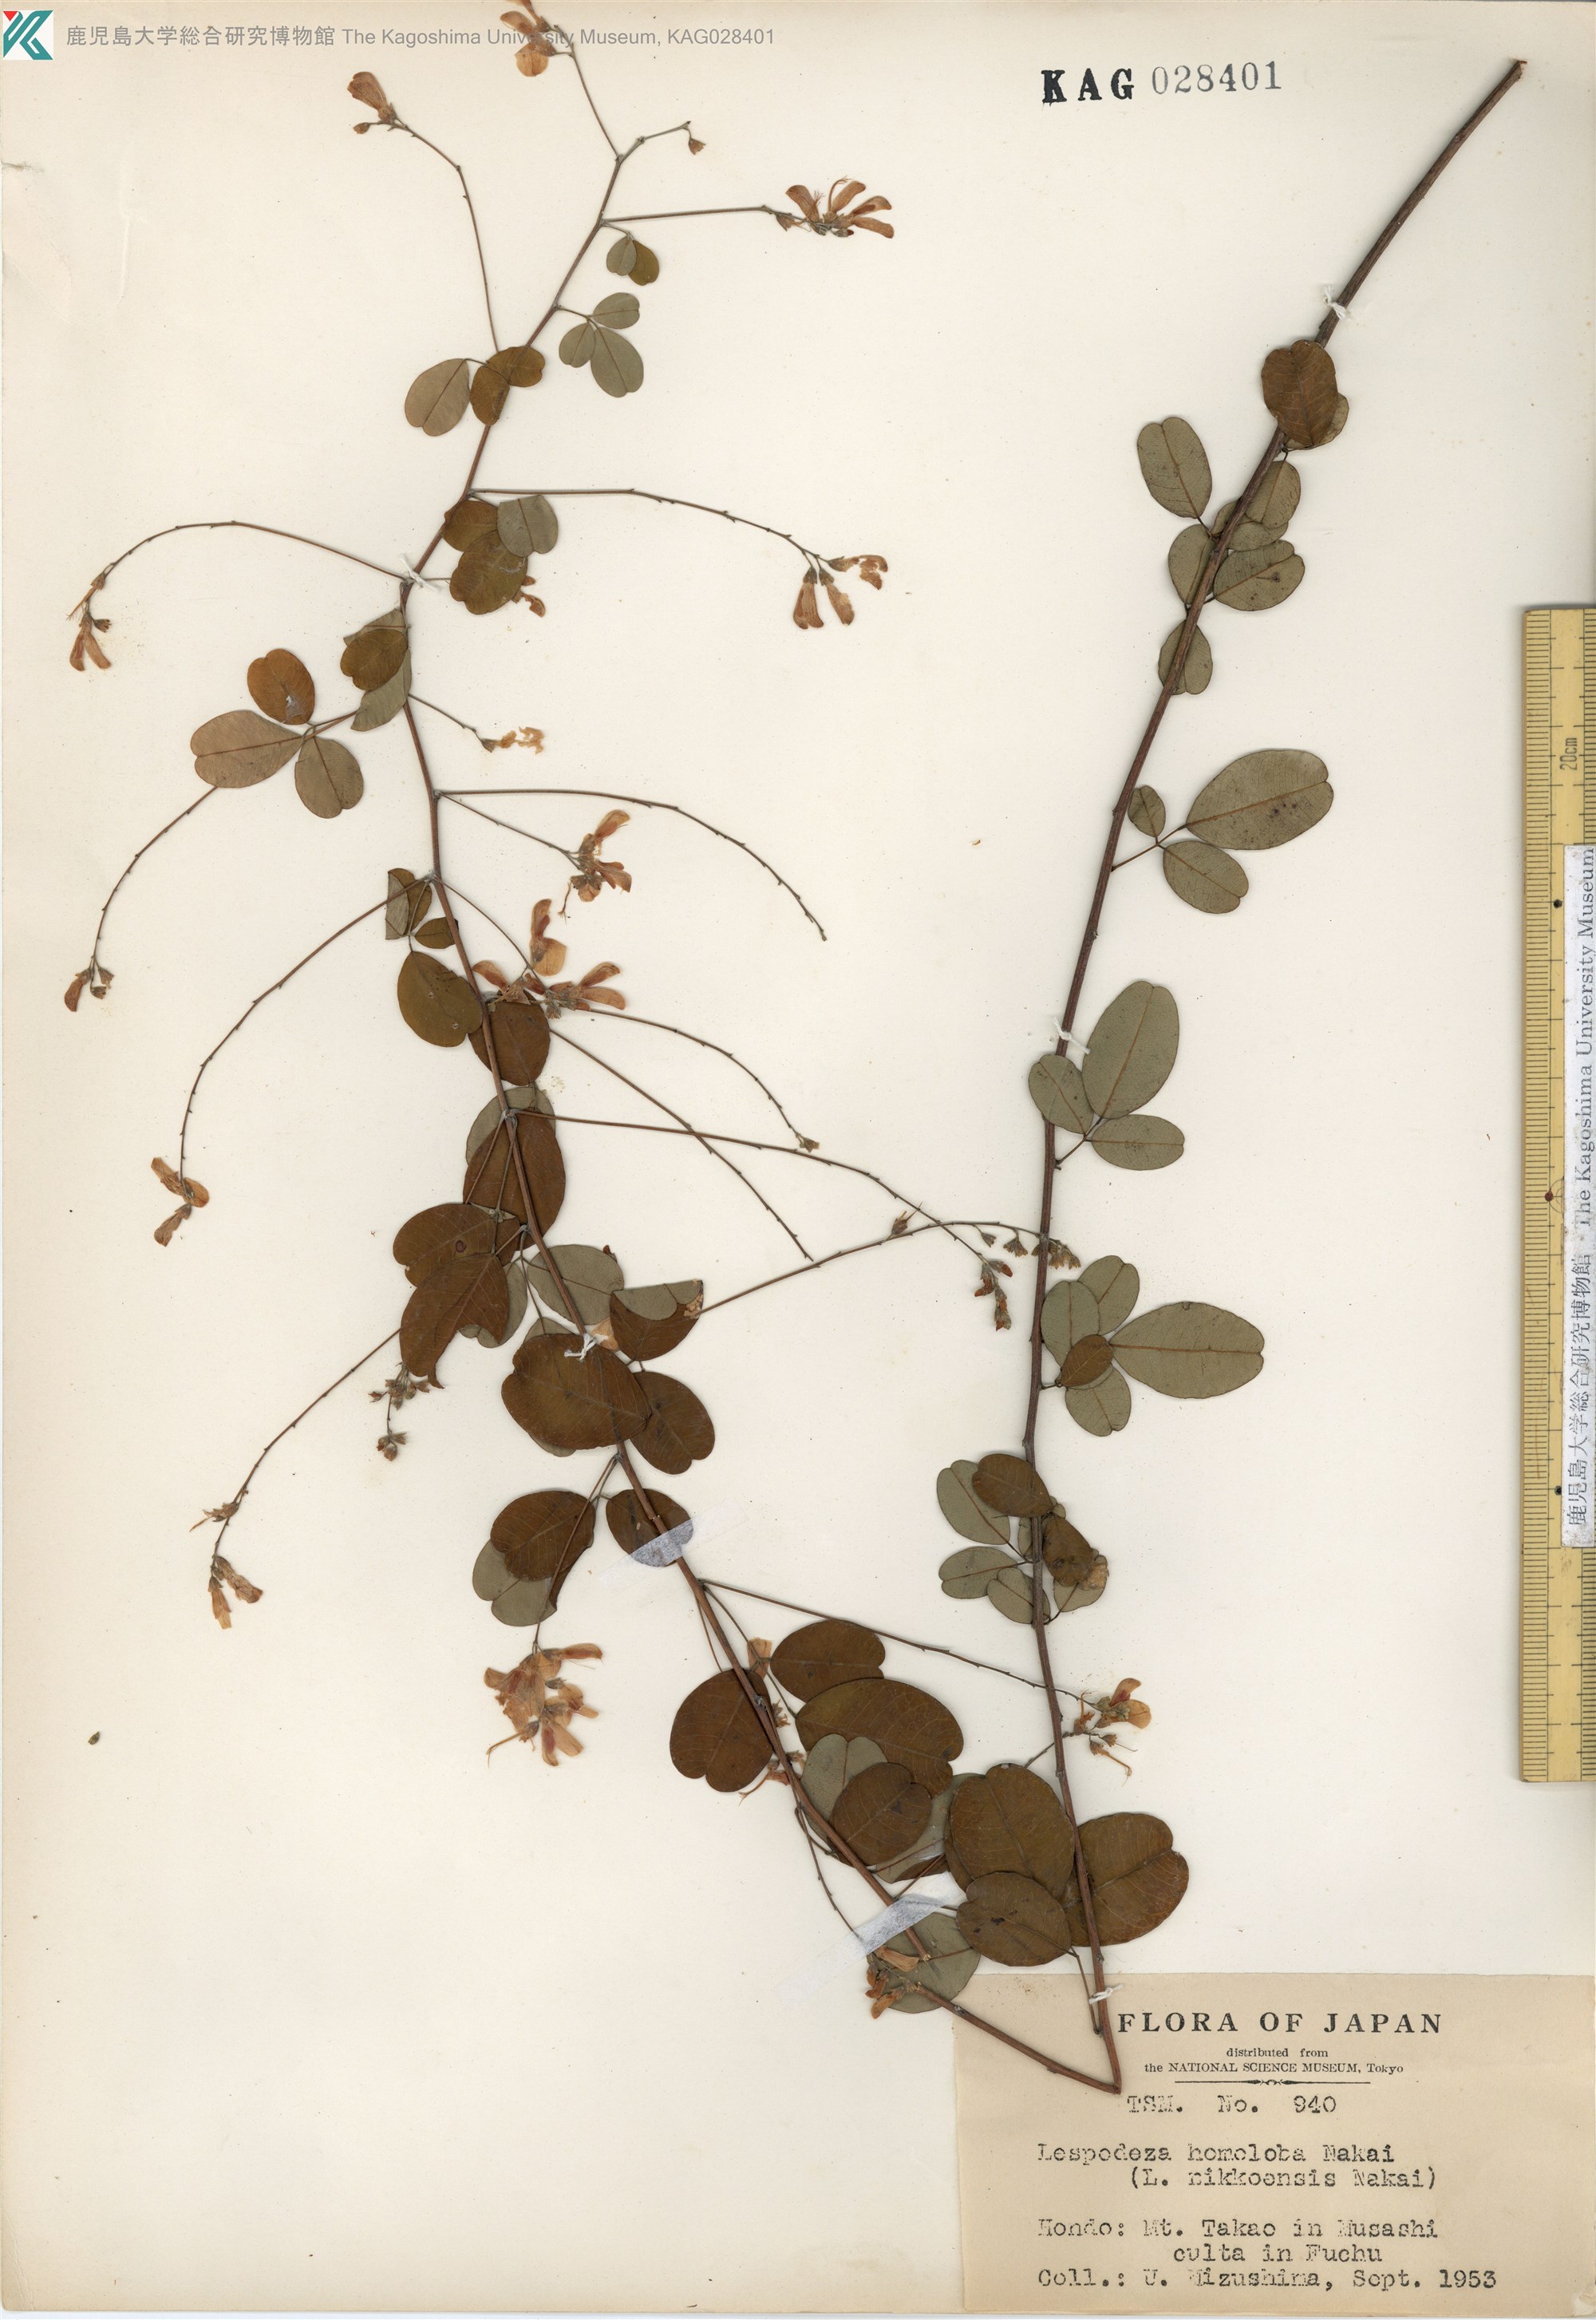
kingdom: Plantae
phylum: Tracheophyta
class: Magnoliopsida
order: Fabales
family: Fabaceae
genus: Lespedeza
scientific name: Lespedeza homoloba
